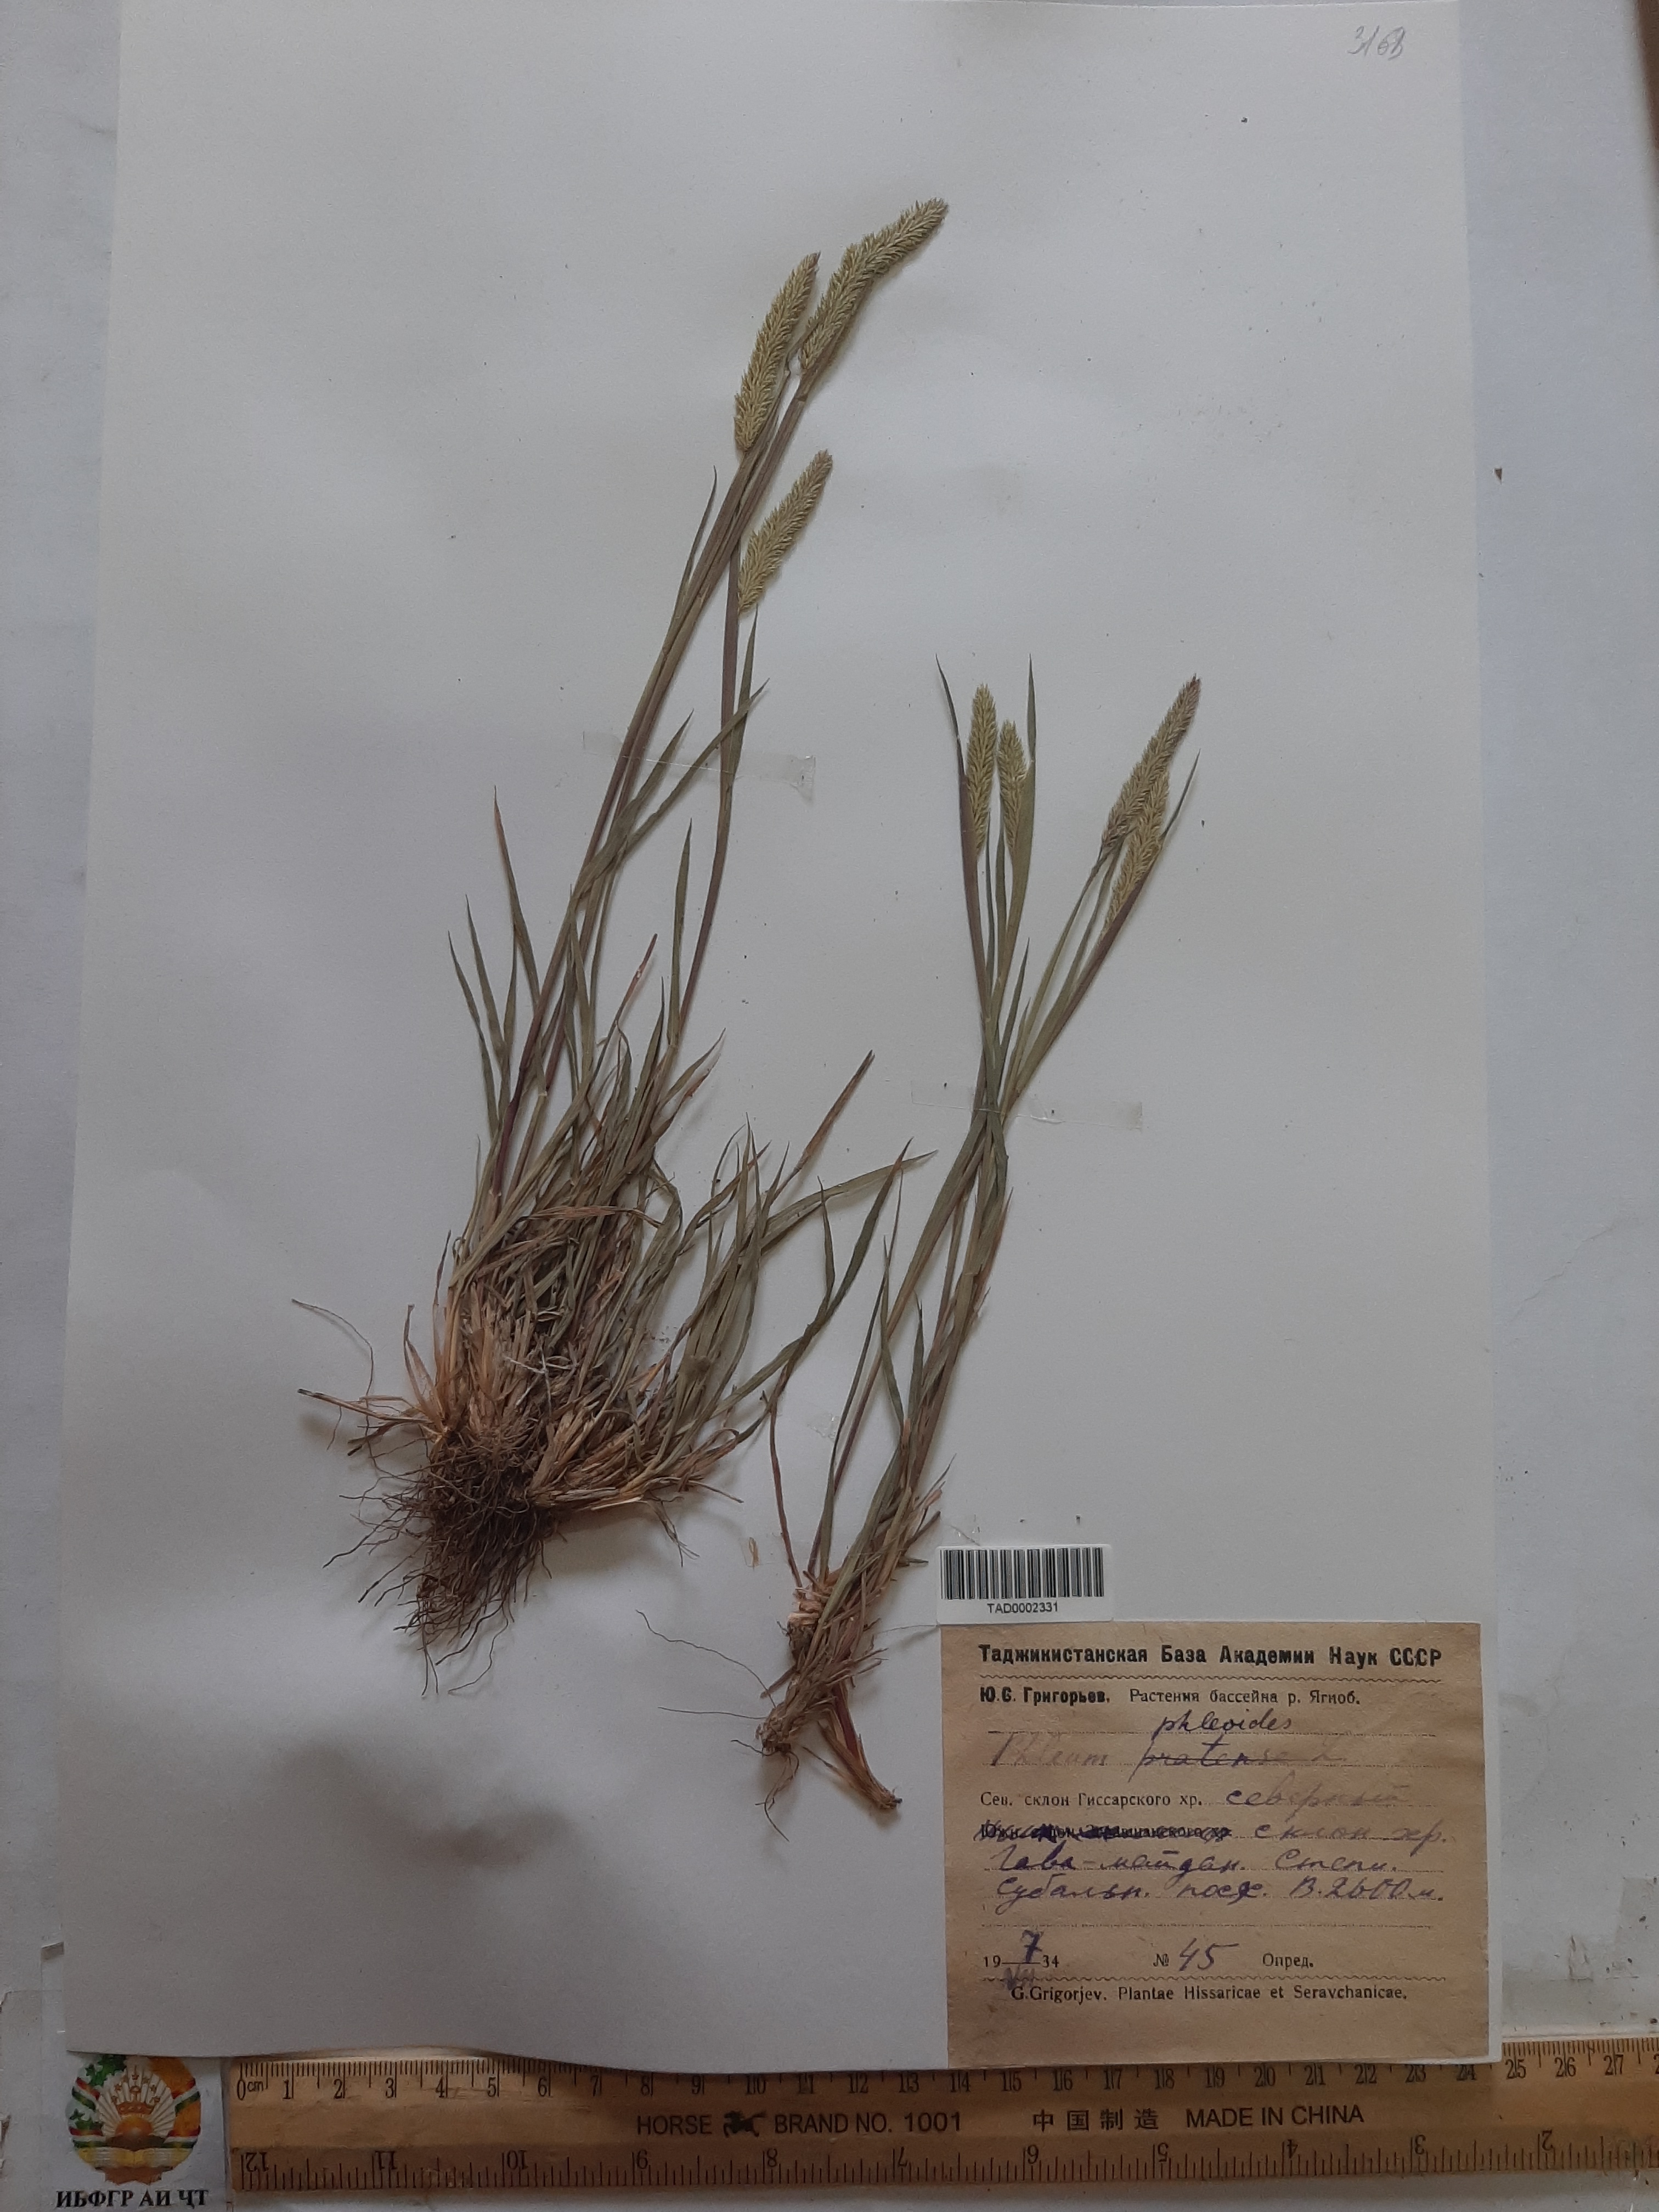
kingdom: Plantae
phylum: Tracheophyta
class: Liliopsida
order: Poales
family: Poaceae
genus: Phleum
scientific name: Phleum phleoides
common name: Purple-stem cat's-tail
